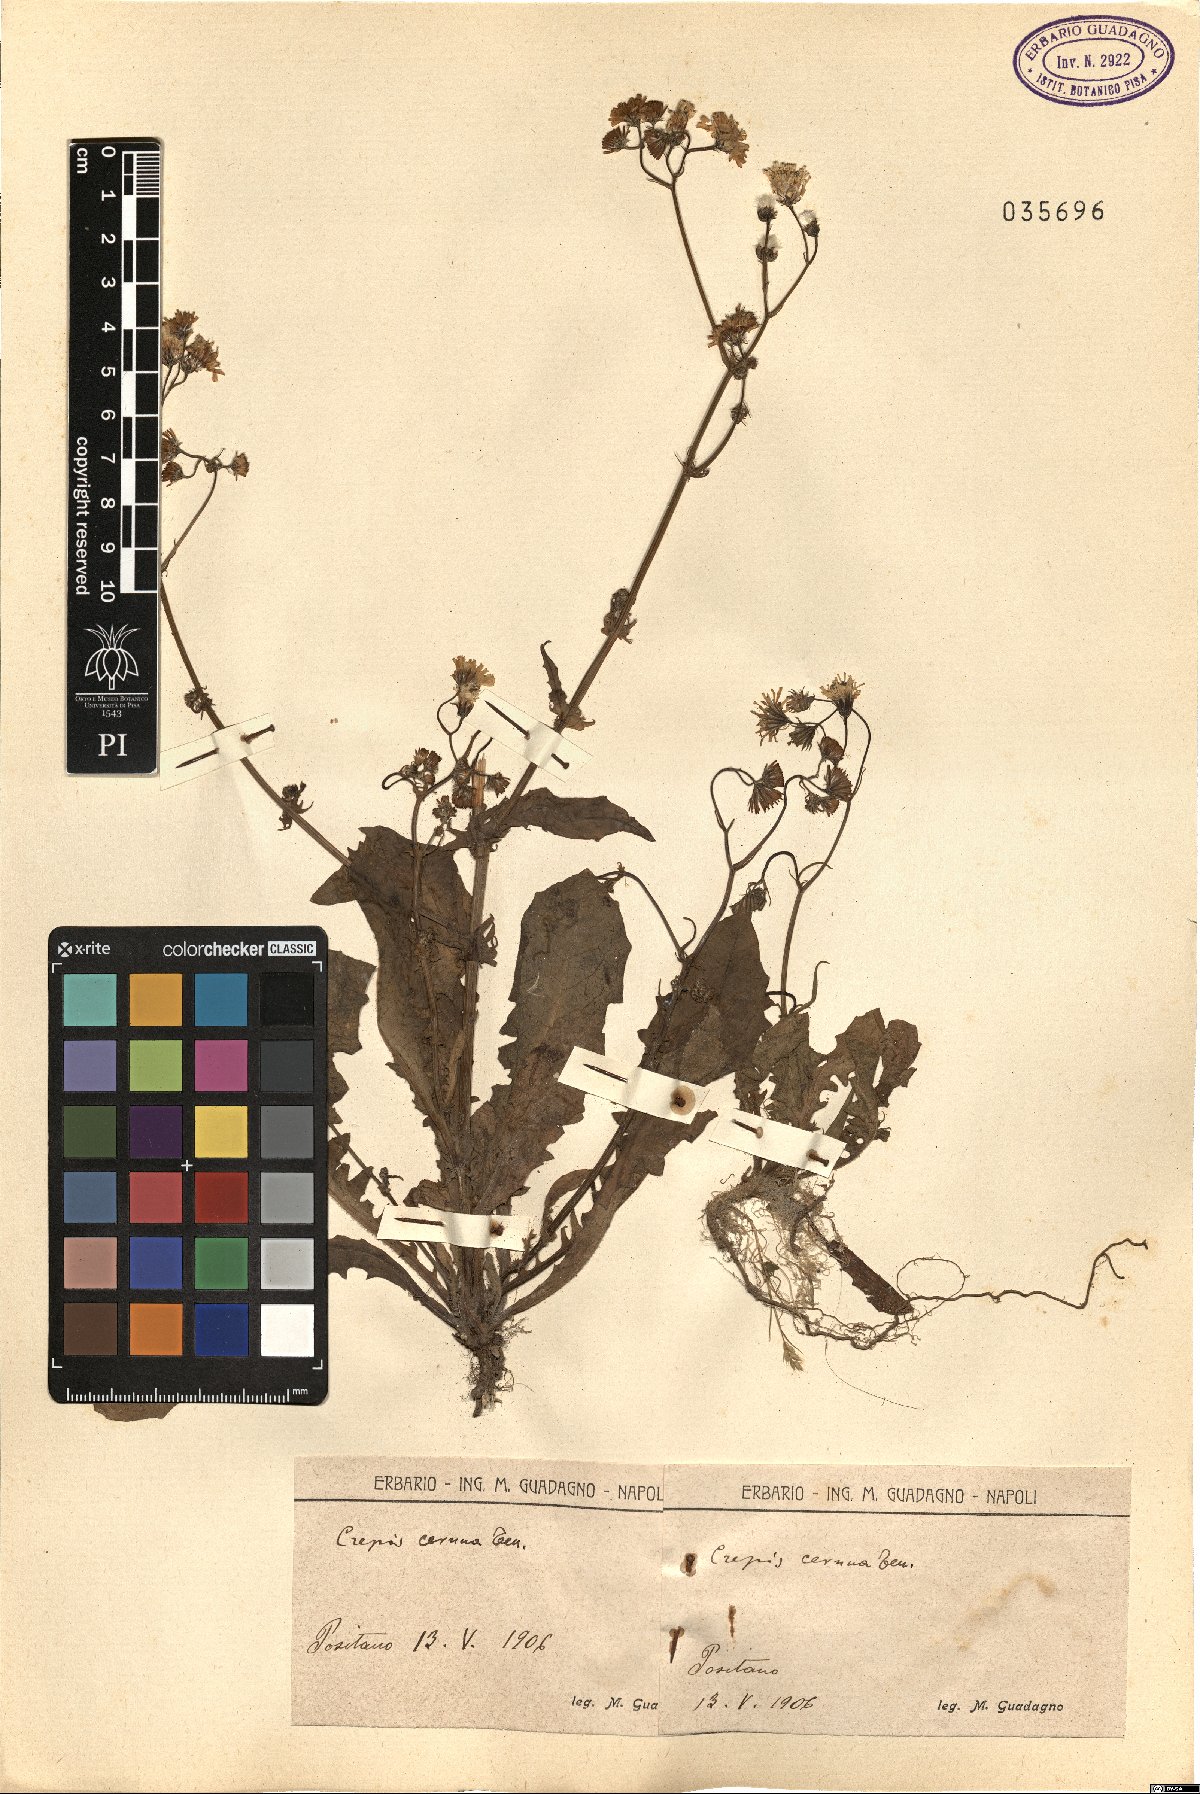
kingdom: Plantae
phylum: Tracheophyta
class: Magnoliopsida
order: Asterales
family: Asteraceae
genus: Crepis
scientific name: Crepis neglecta
